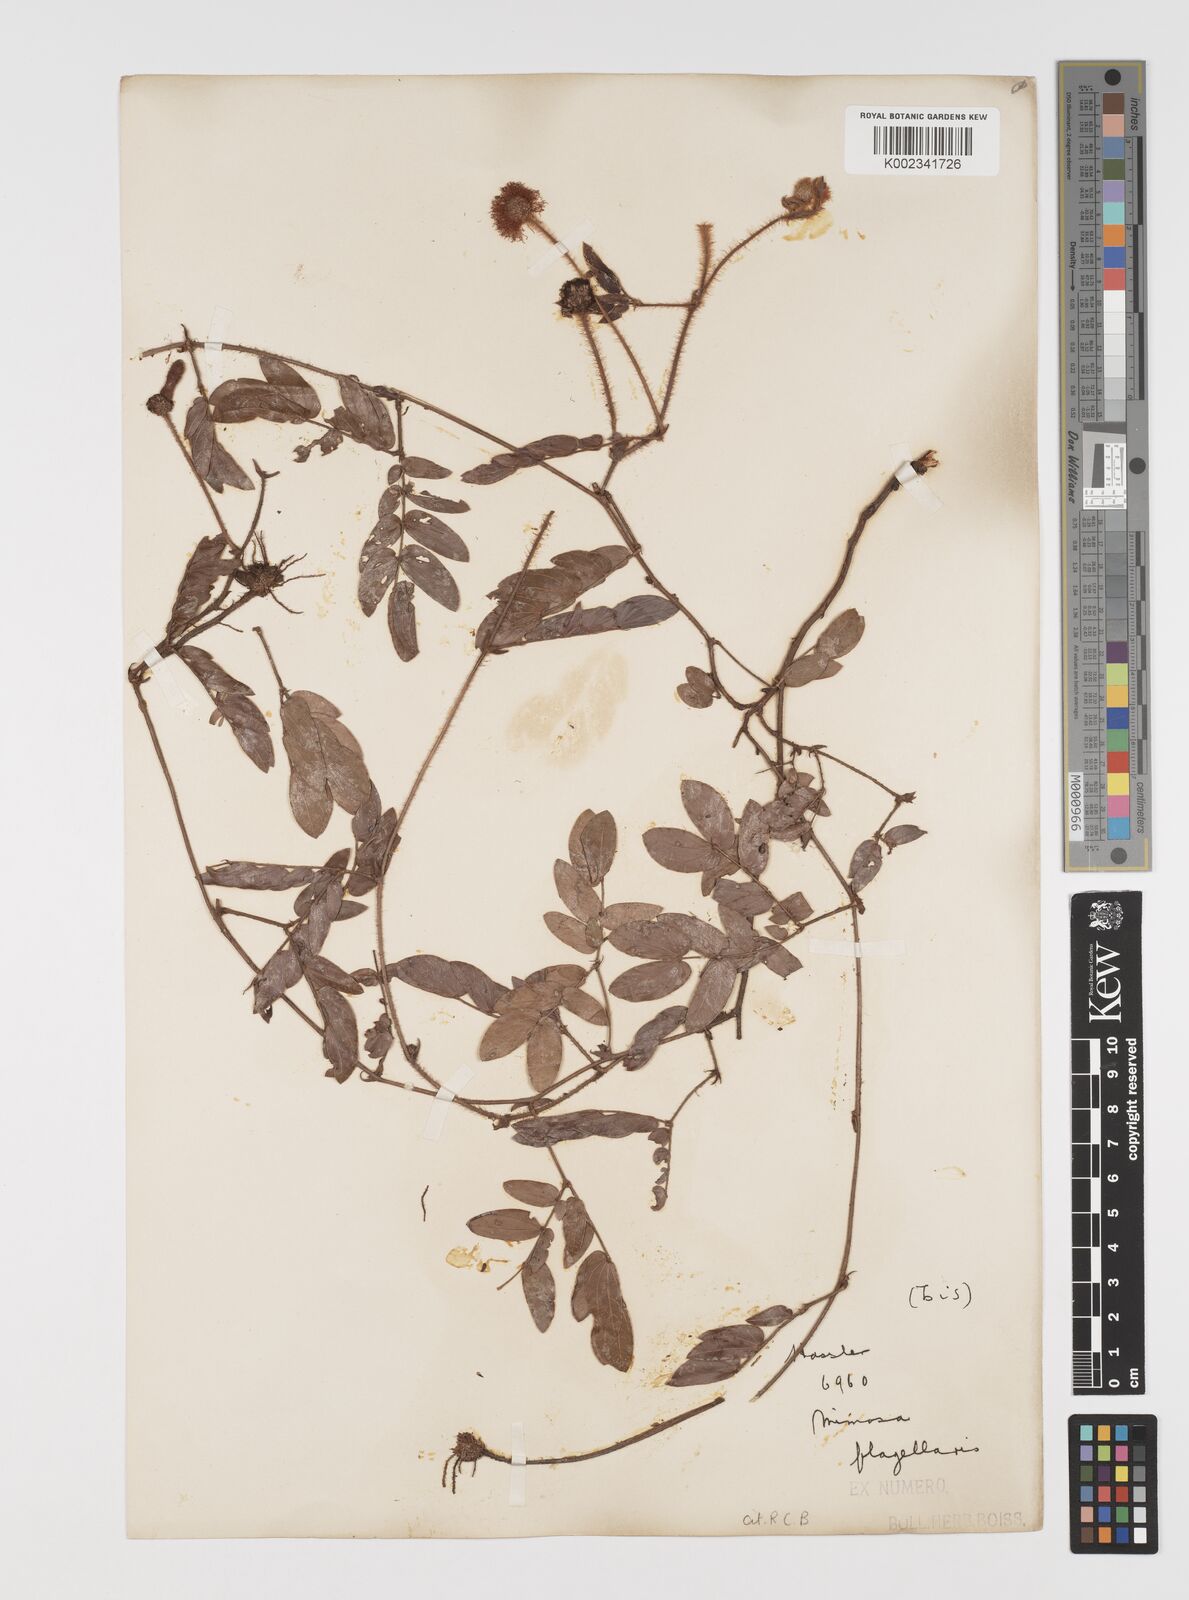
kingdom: Plantae
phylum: Tracheophyta
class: Magnoliopsida
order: Fabales
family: Fabaceae
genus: Mimosa
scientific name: Mimosa flagellaris
